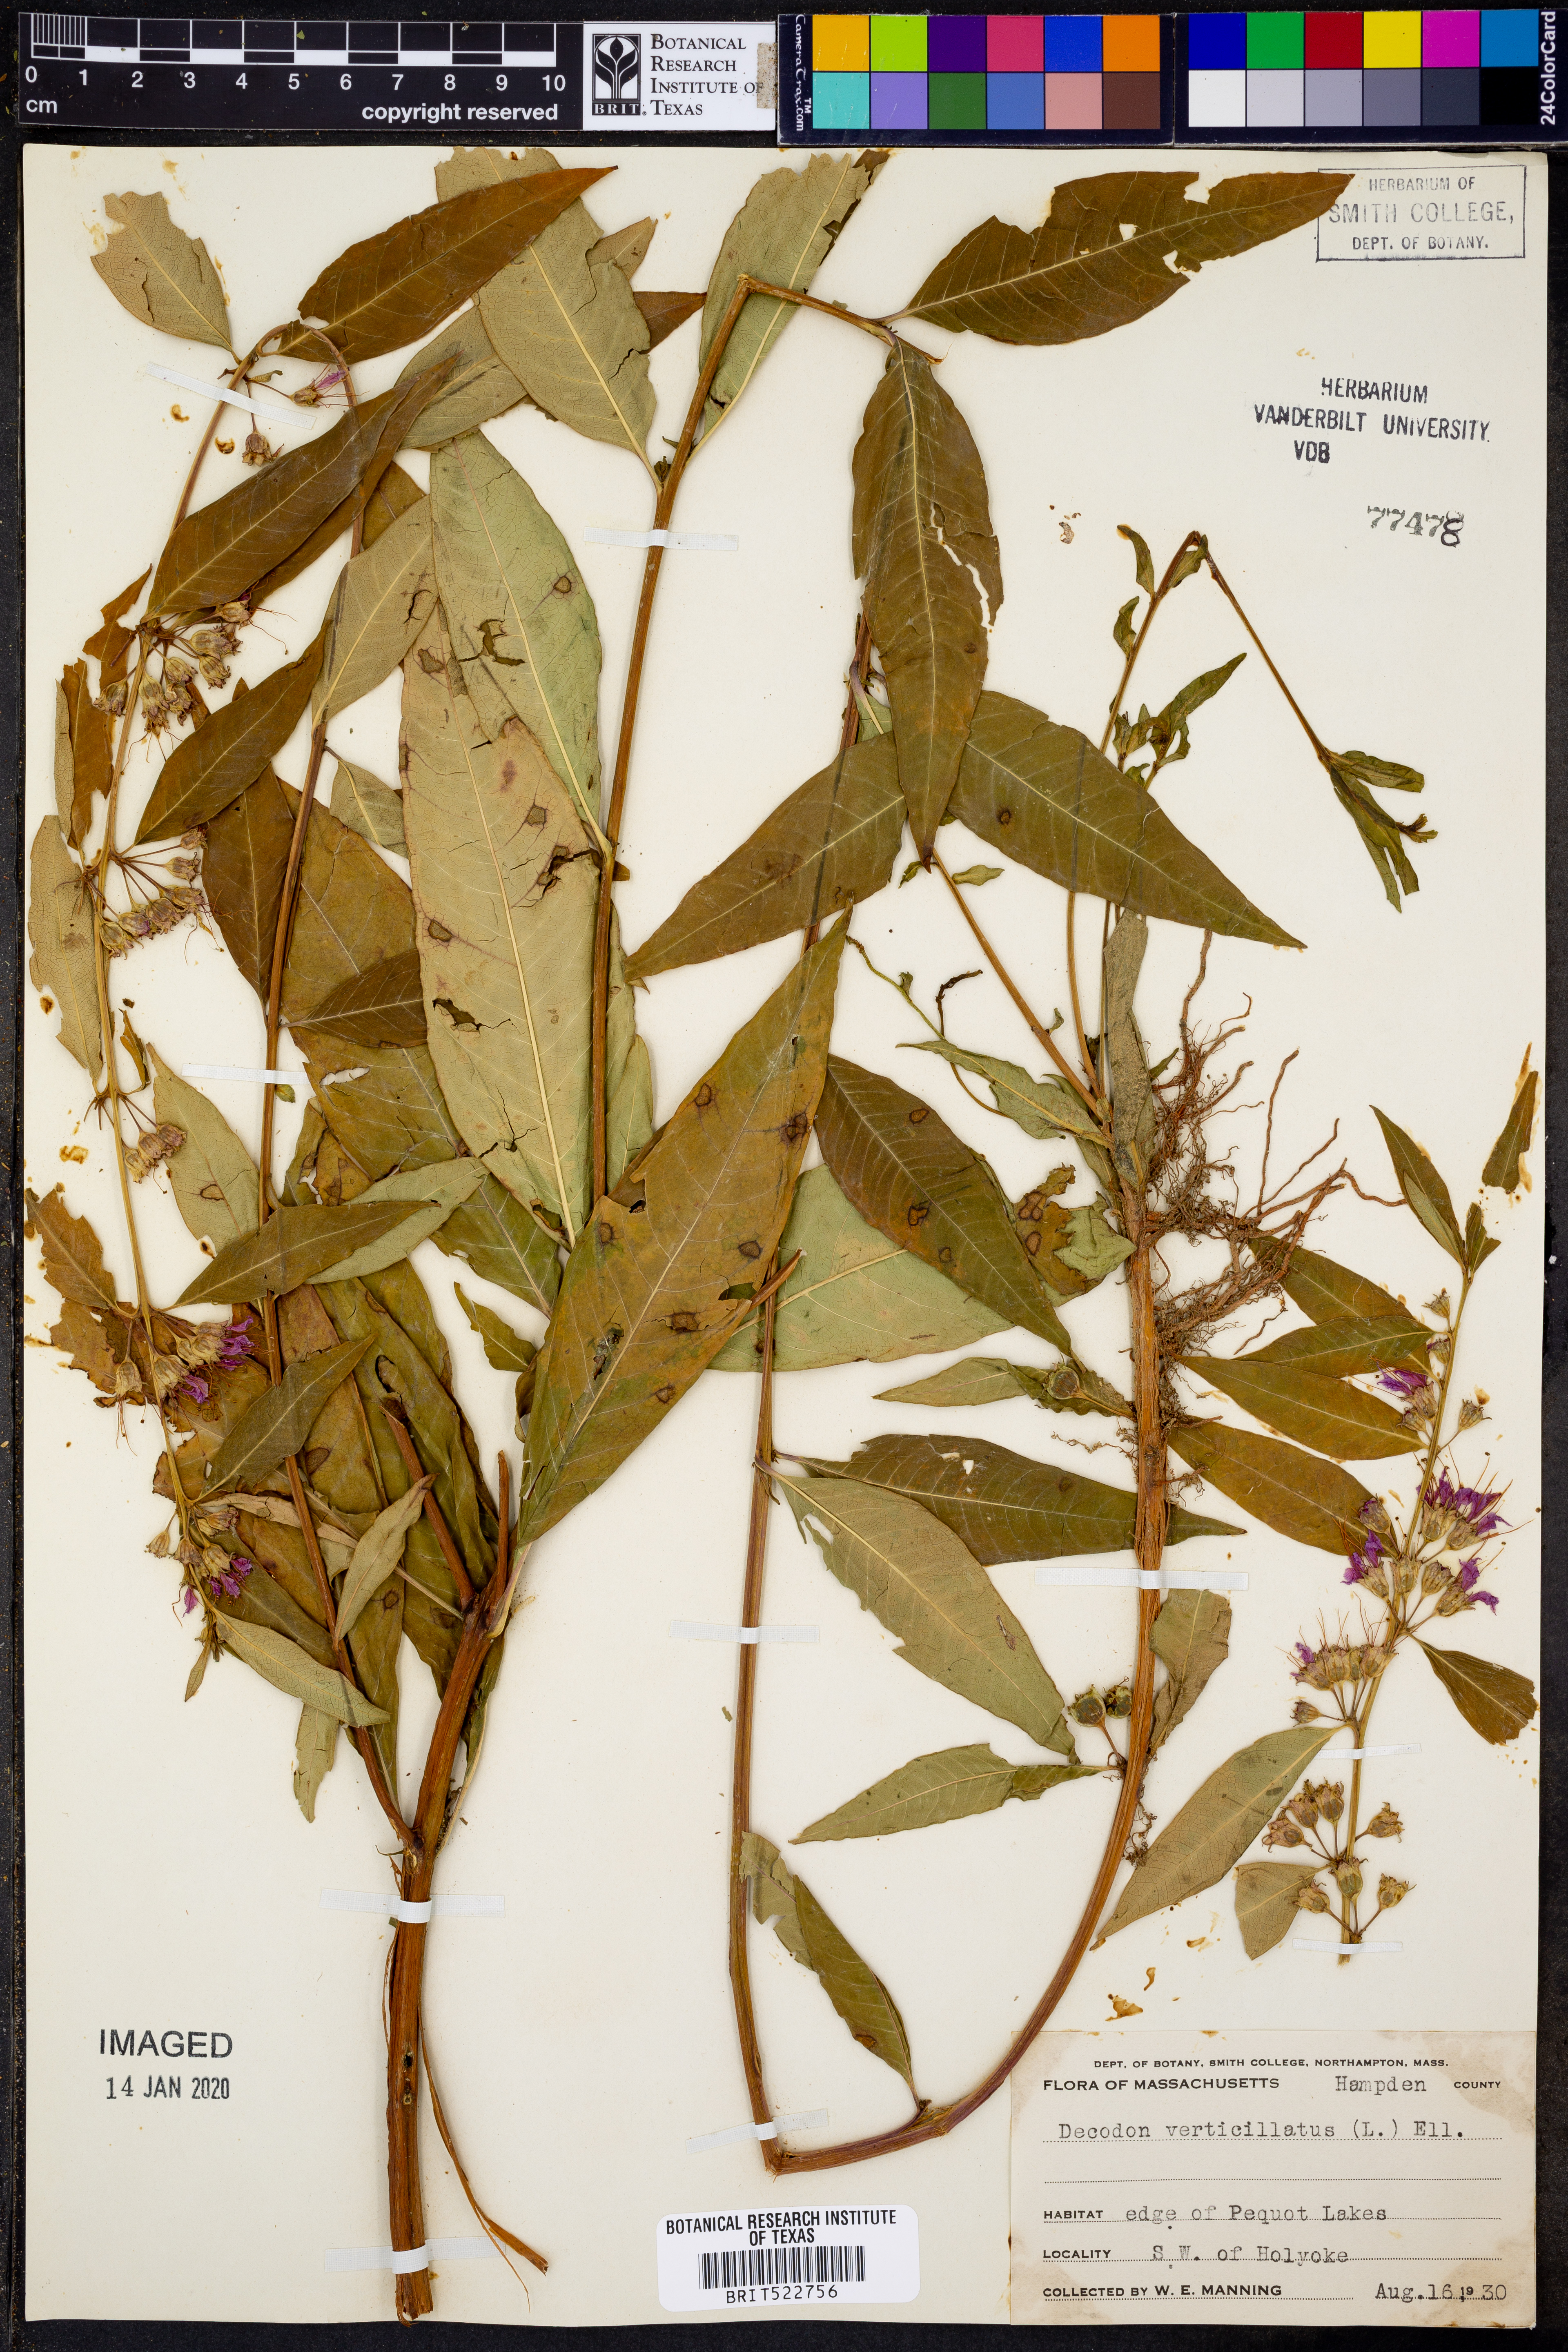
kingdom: Plantae
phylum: Tracheophyta
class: Magnoliopsida
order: Myrtales
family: Lythraceae
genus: Decodon
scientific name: Decodon verticillatus
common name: Hairy swamp loosestrife
